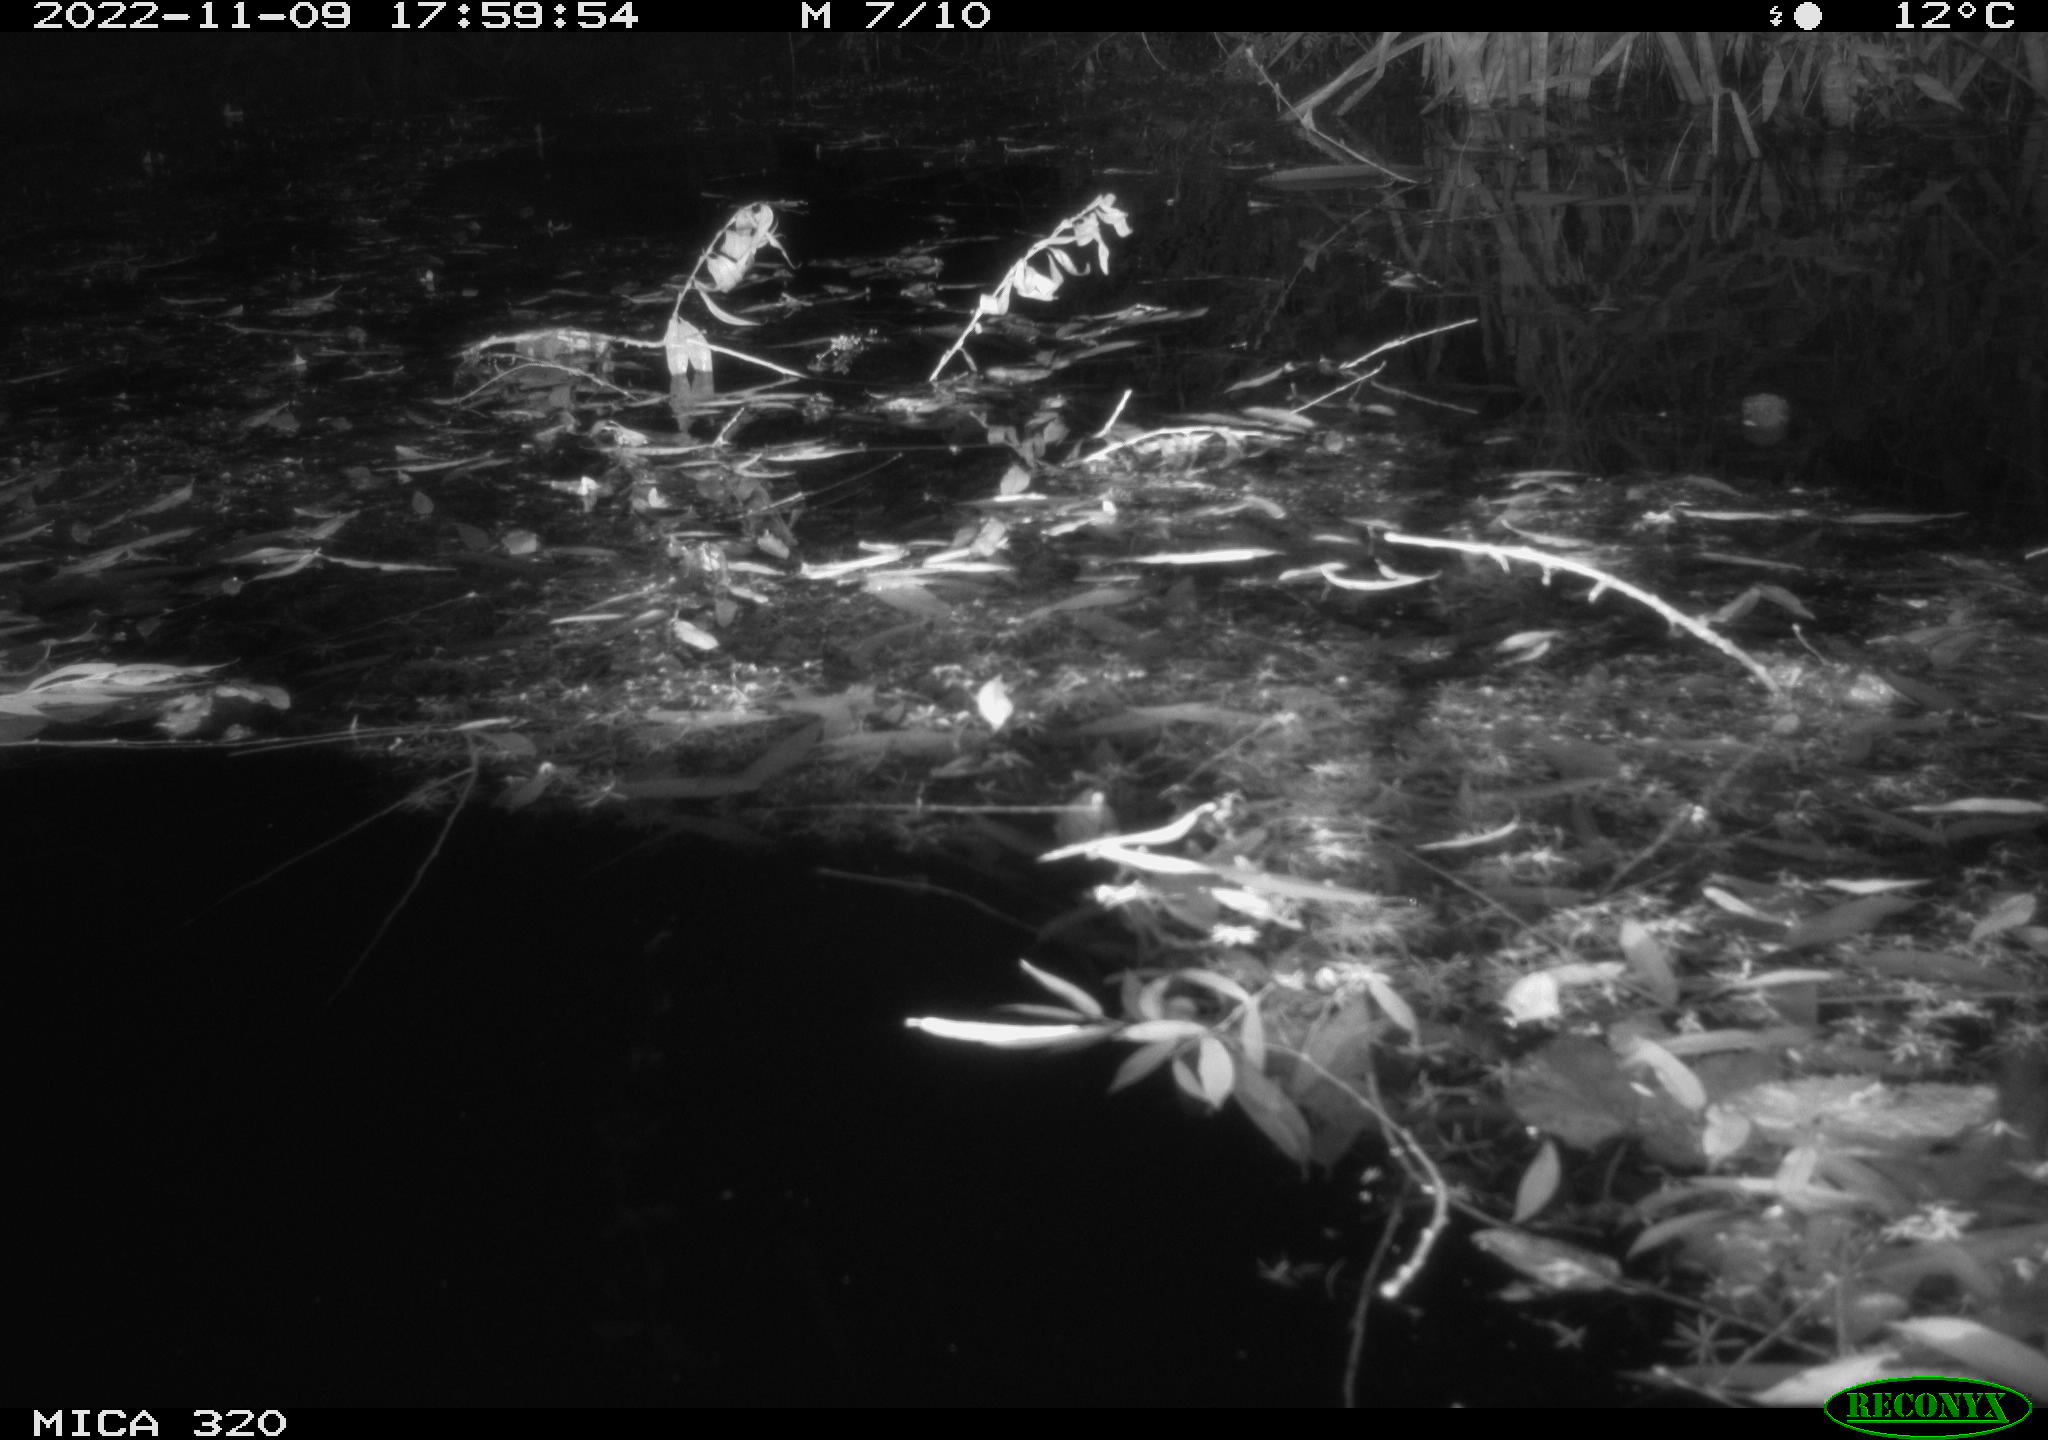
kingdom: Animalia
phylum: Chordata
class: Mammalia
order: Rodentia
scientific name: Rodentia
